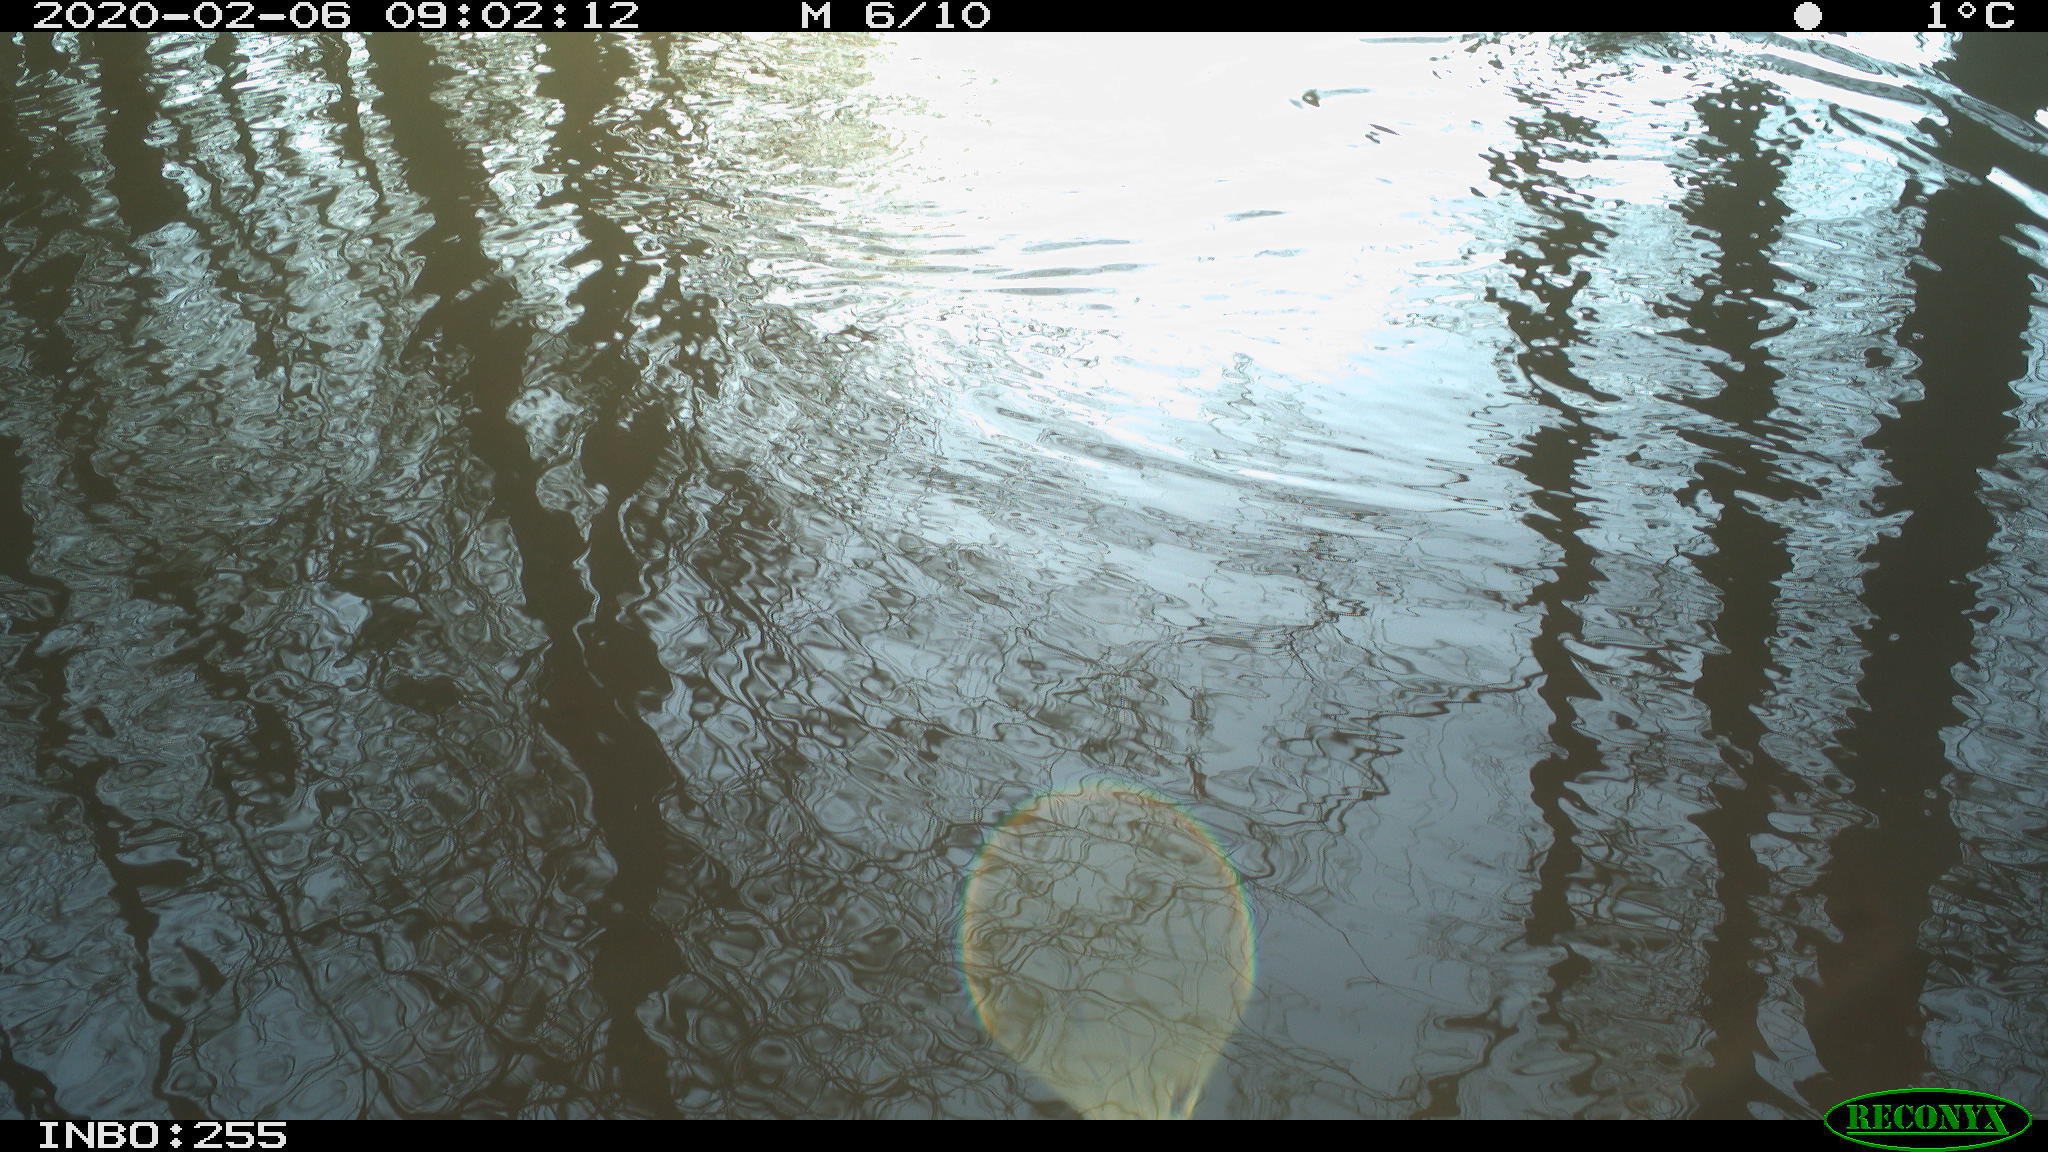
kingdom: Animalia
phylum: Chordata
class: Aves
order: Gruiformes
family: Rallidae
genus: Fulica
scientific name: Fulica atra
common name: Eurasian coot
